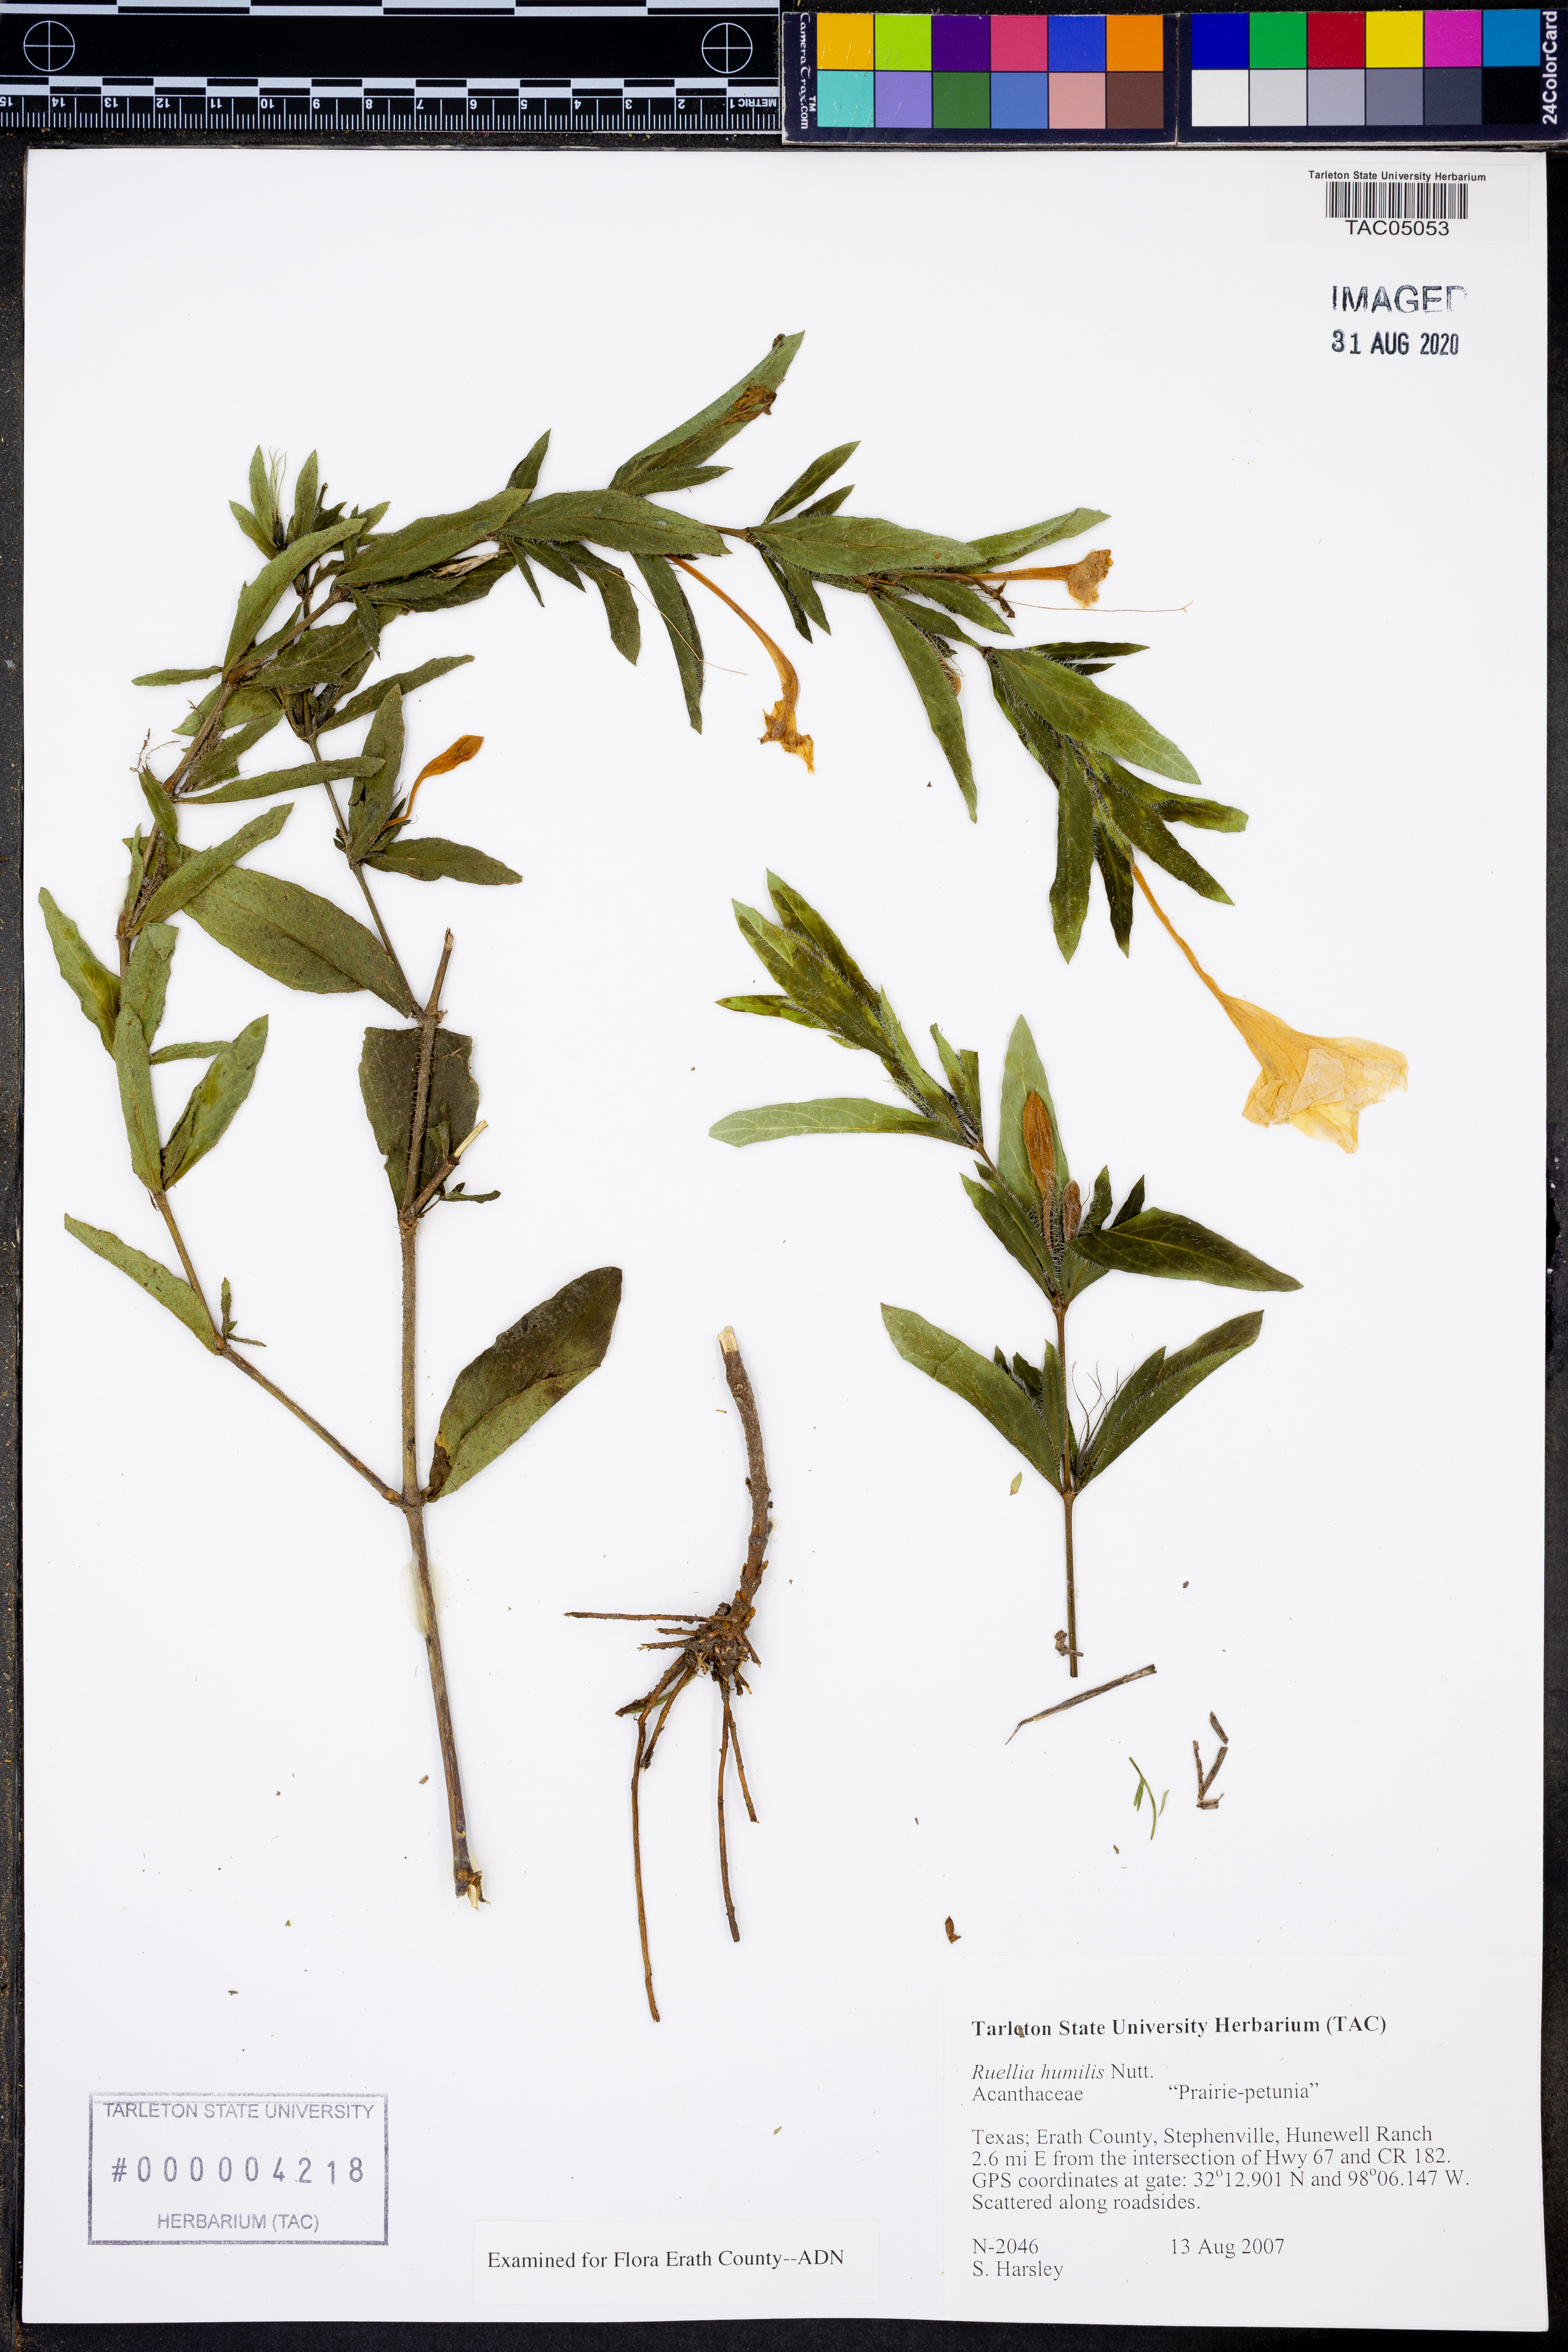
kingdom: Plantae
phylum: Tracheophyta
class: Magnoliopsida
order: Lamiales
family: Acanthaceae
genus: Ruellia
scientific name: Ruellia humilis
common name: Fringe-leaf ruellia
